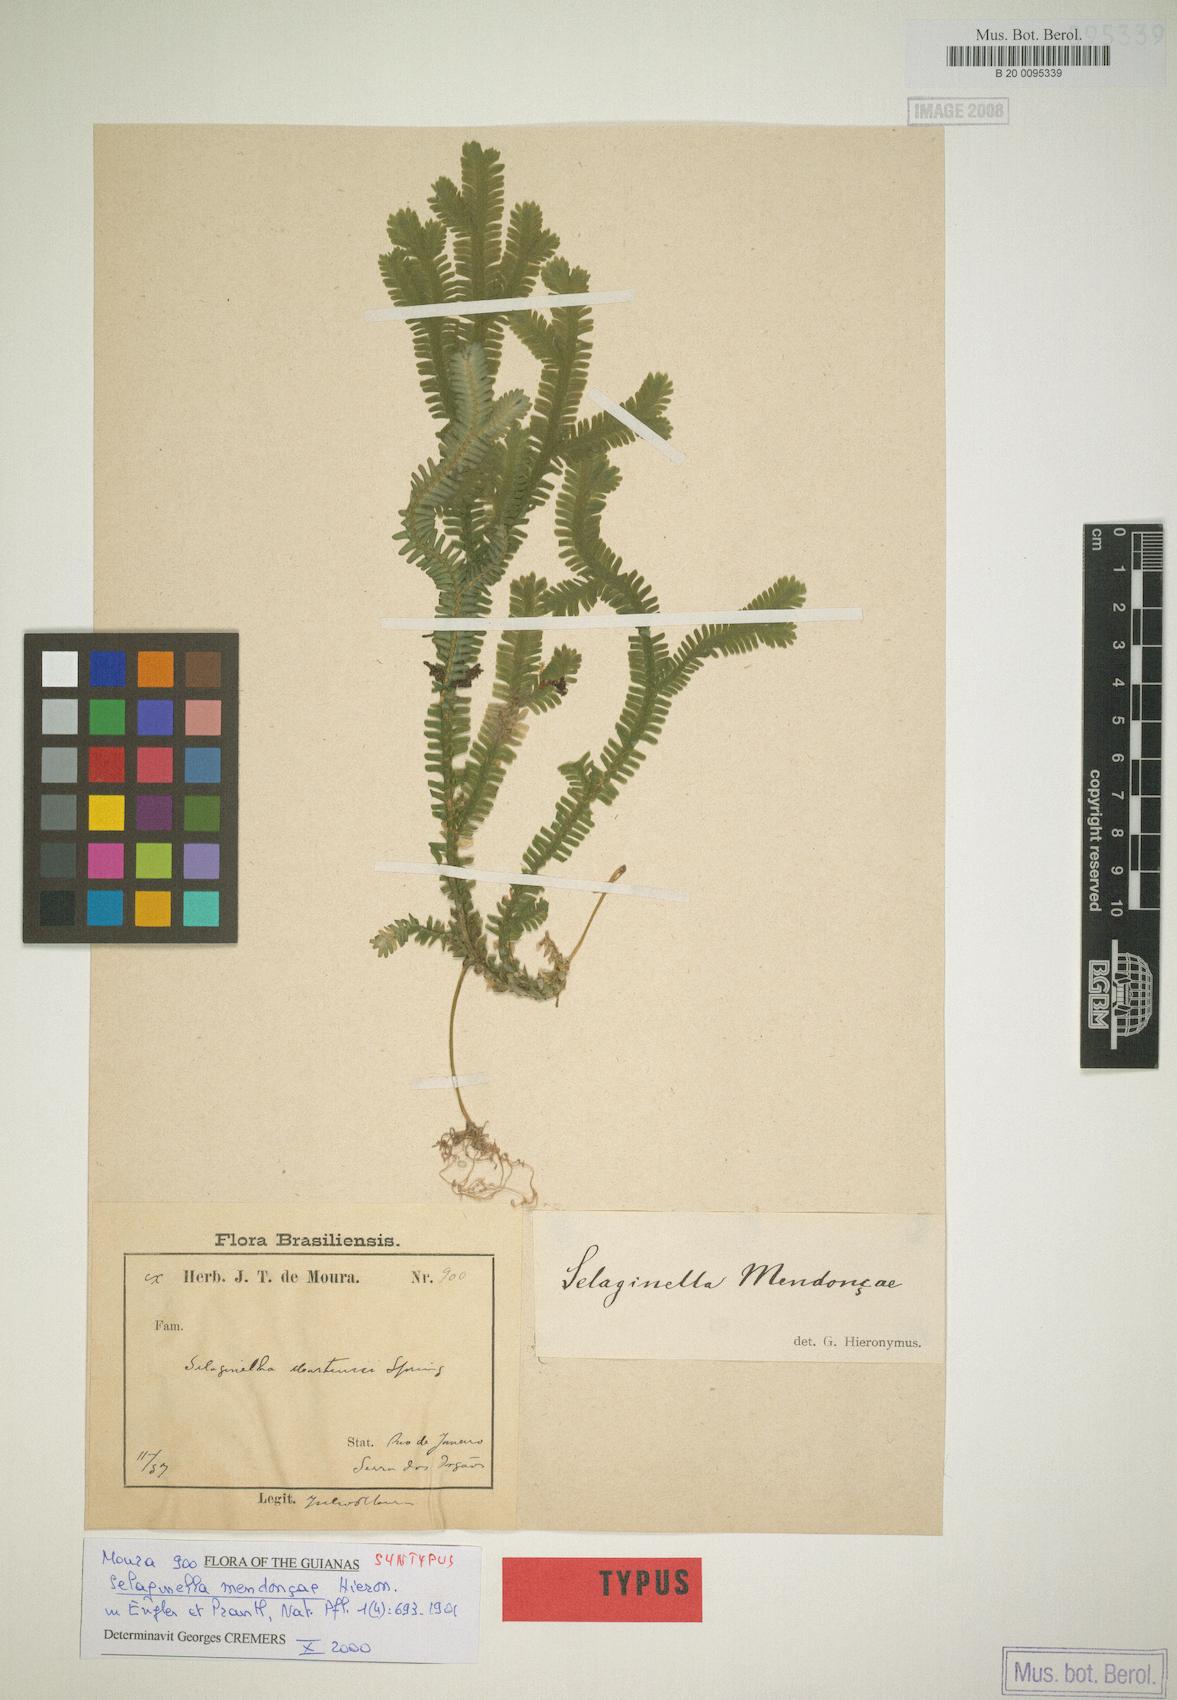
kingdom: Plantae
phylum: Tracheophyta
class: Lycopodiopsida
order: Selaginellales
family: Selaginellaceae
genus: Selaginella
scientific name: Selaginella mendoncae
